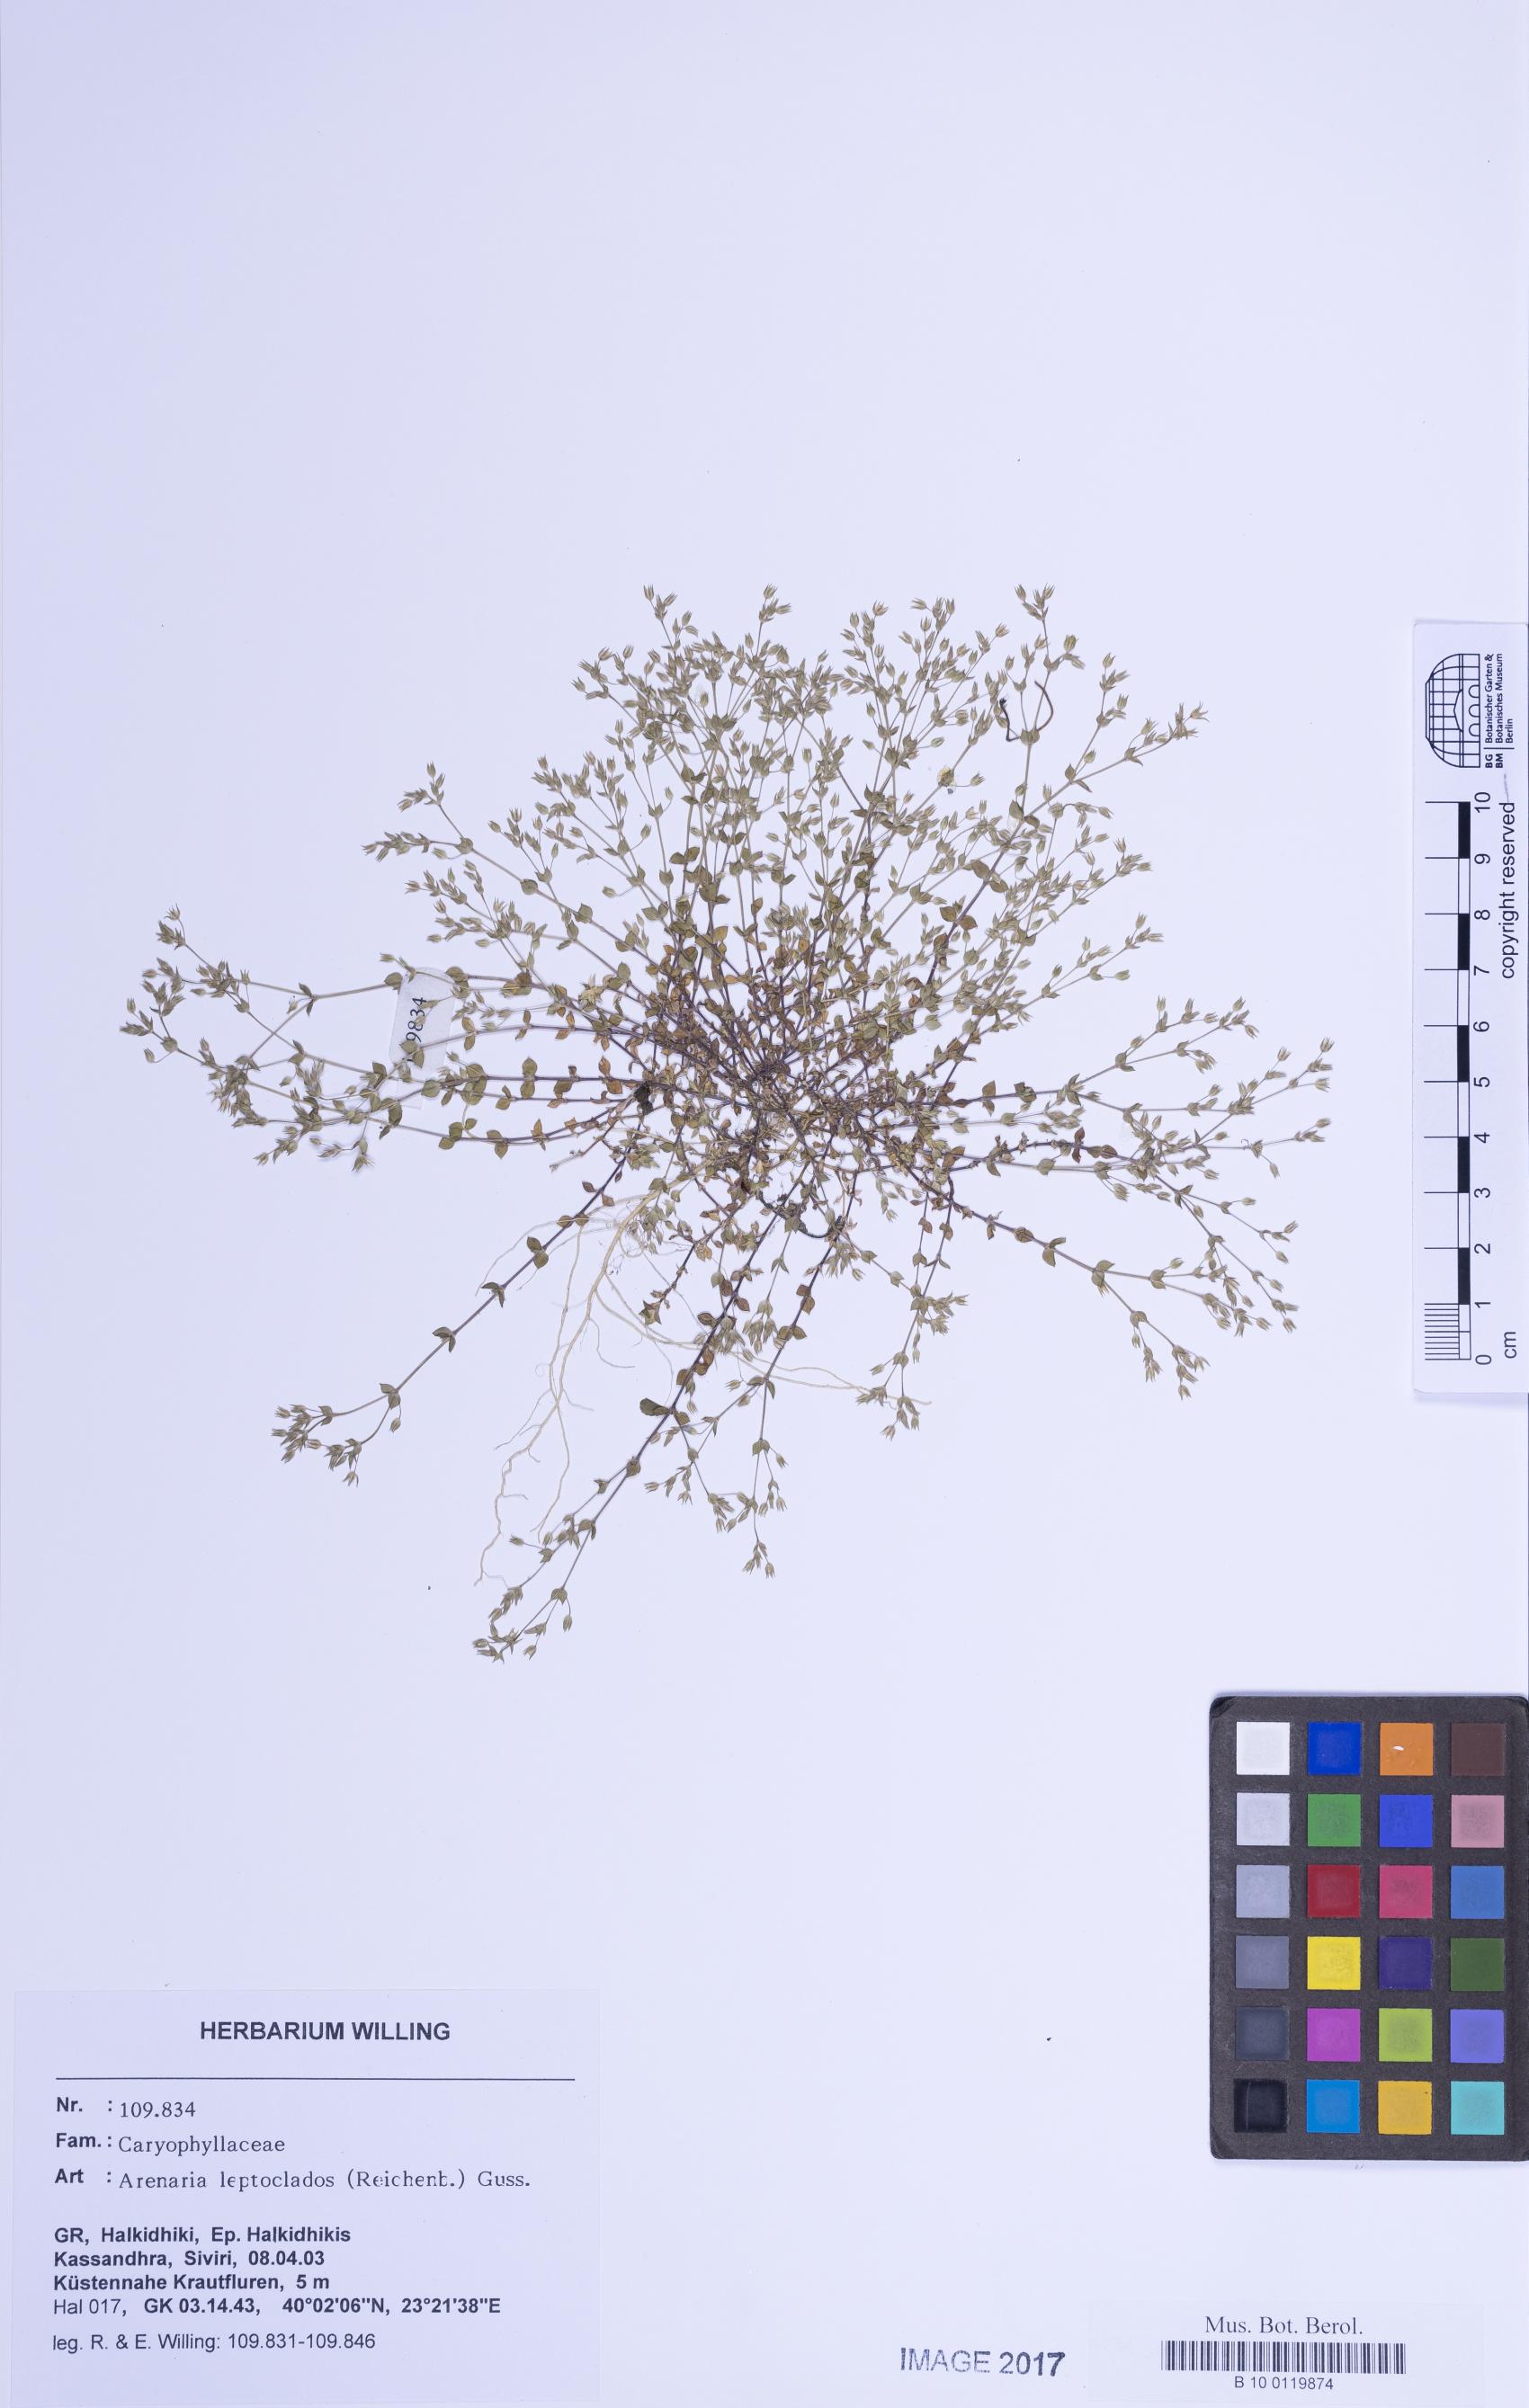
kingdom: Plantae
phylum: Tracheophyta
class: Magnoliopsida
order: Caryophyllales
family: Caryophyllaceae
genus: Arenaria
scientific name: Arenaria leptoclados
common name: Thyme-leaved sandwort
